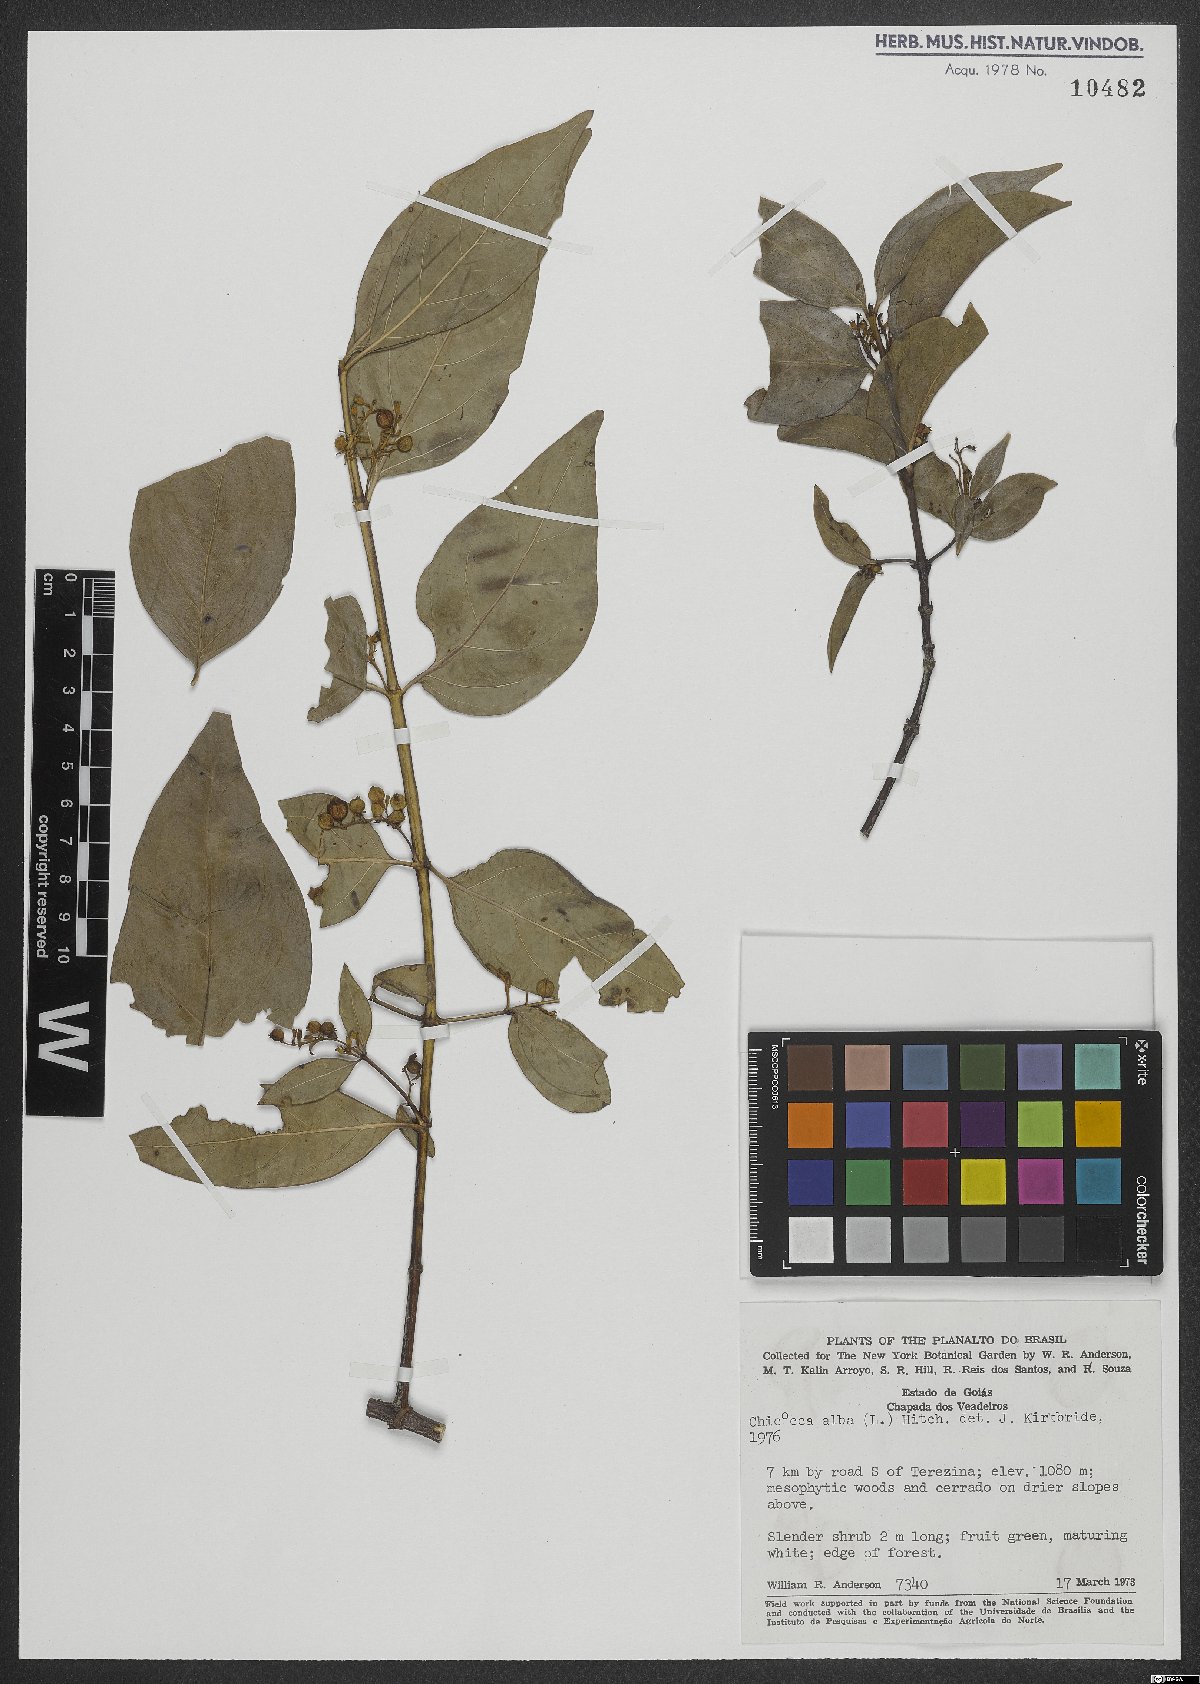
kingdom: Plantae
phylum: Tracheophyta
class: Magnoliopsida
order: Gentianales
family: Rubiaceae
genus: Chiococca
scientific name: Chiococca alba
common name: Snowberry
